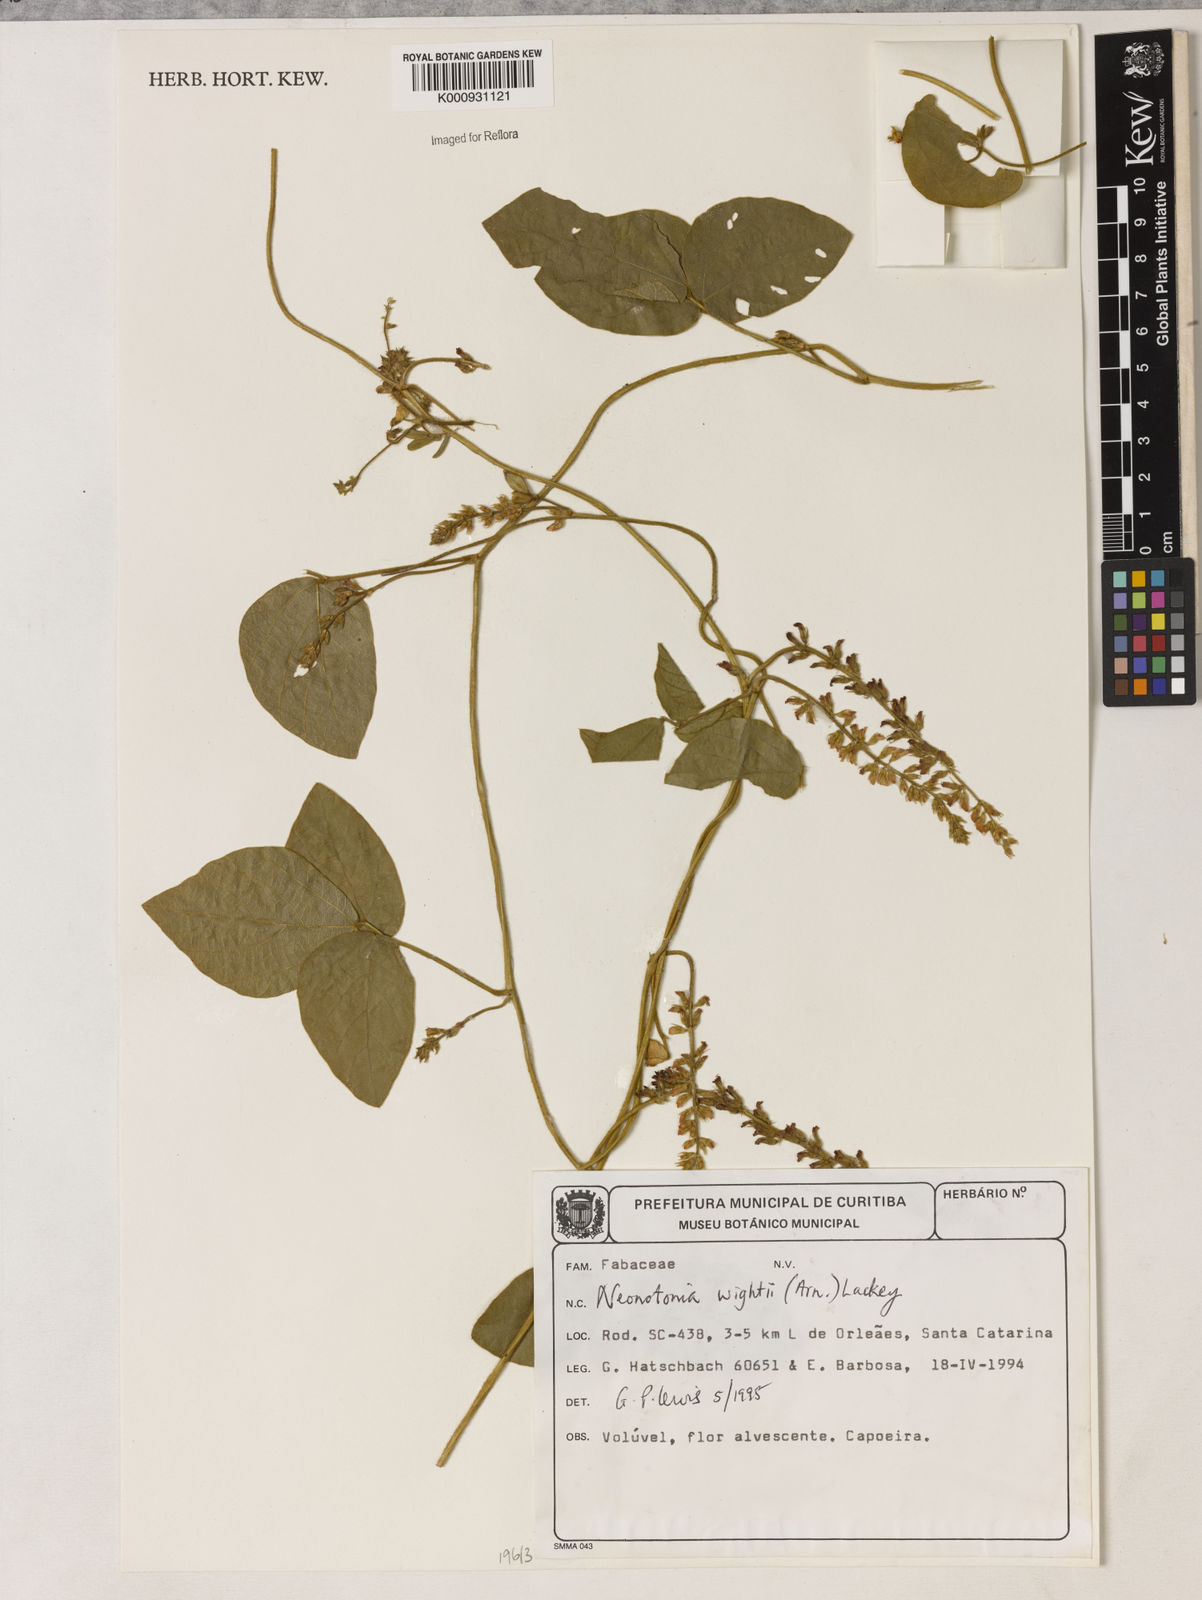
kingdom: Plantae
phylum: Tracheophyta
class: Magnoliopsida
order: Fabales
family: Fabaceae
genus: Neonotonia
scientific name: Neonotonia wightii
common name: Perennial soybean
